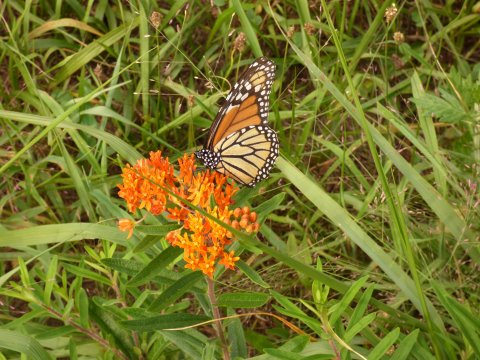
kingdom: Animalia
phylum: Arthropoda
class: Insecta
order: Lepidoptera
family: Nymphalidae
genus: Danaus
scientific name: Danaus plexippus
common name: Monarch
